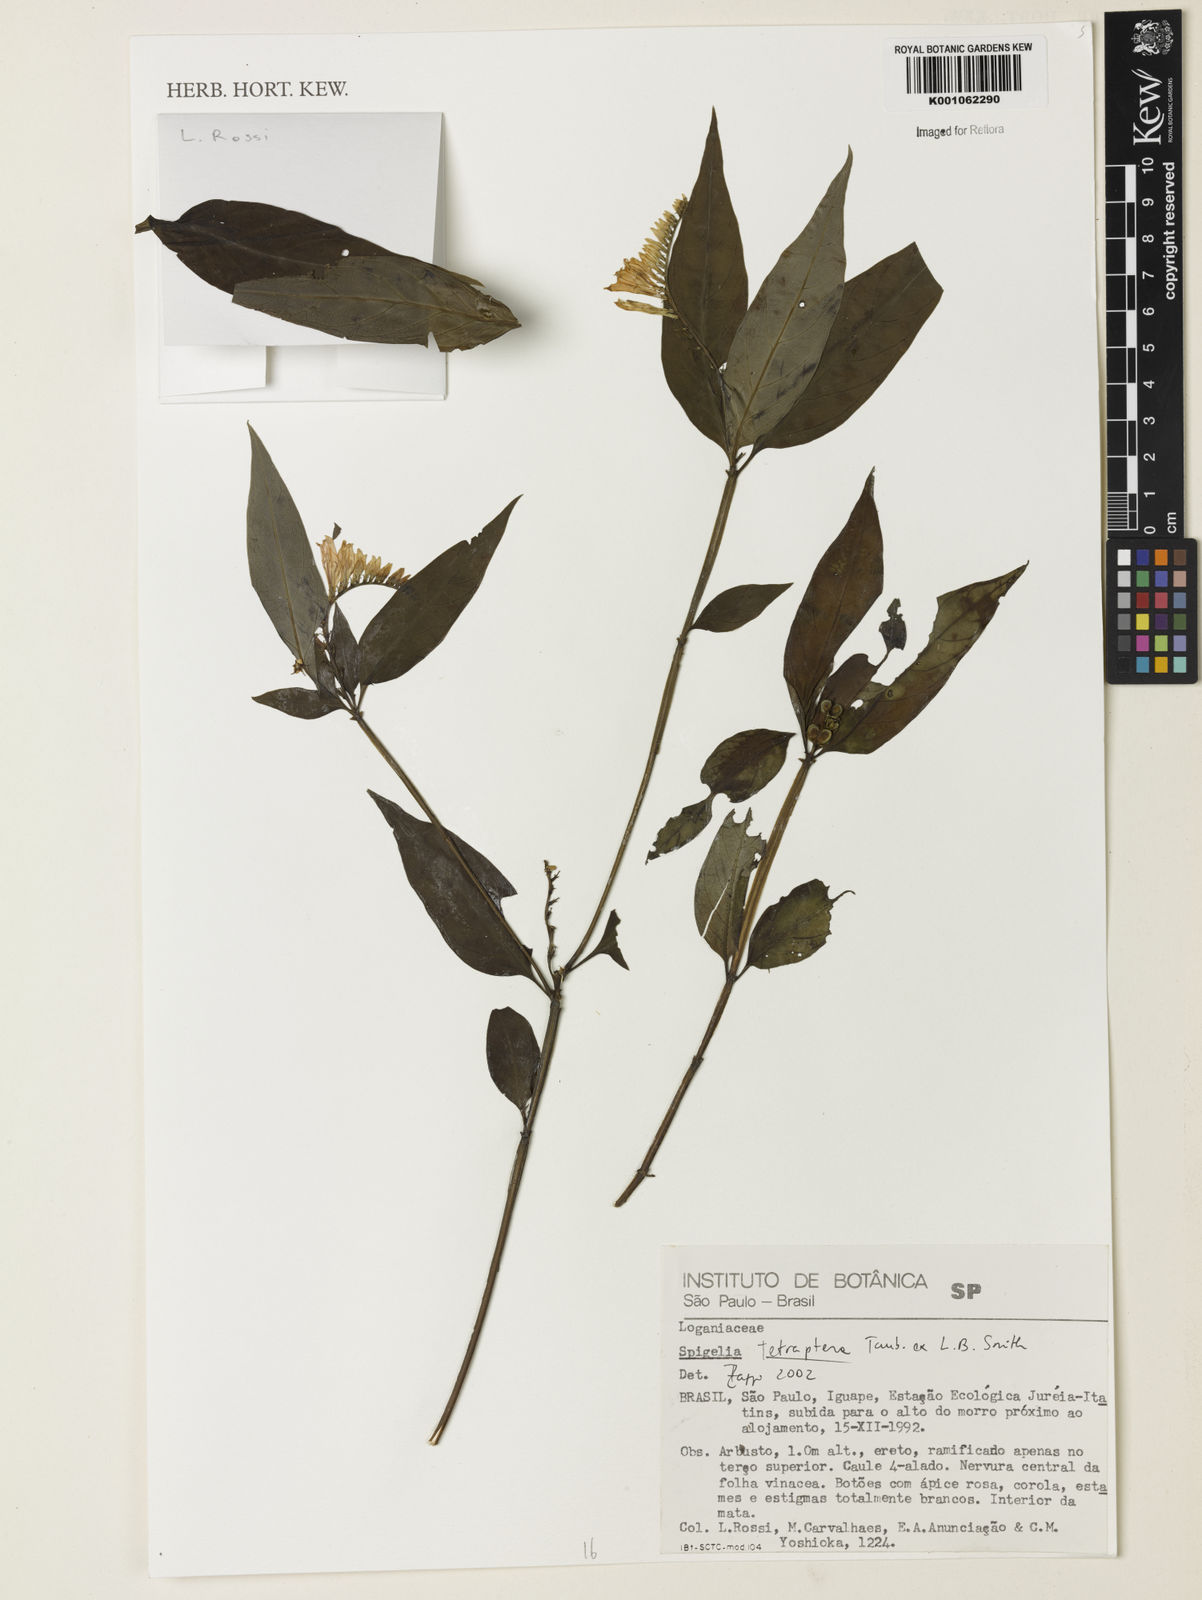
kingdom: Plantae
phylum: Tracheophyta
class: Magnoliopsida
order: Gentianales
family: Loganiaceae
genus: Spigelia
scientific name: Spigelia tetraptera
